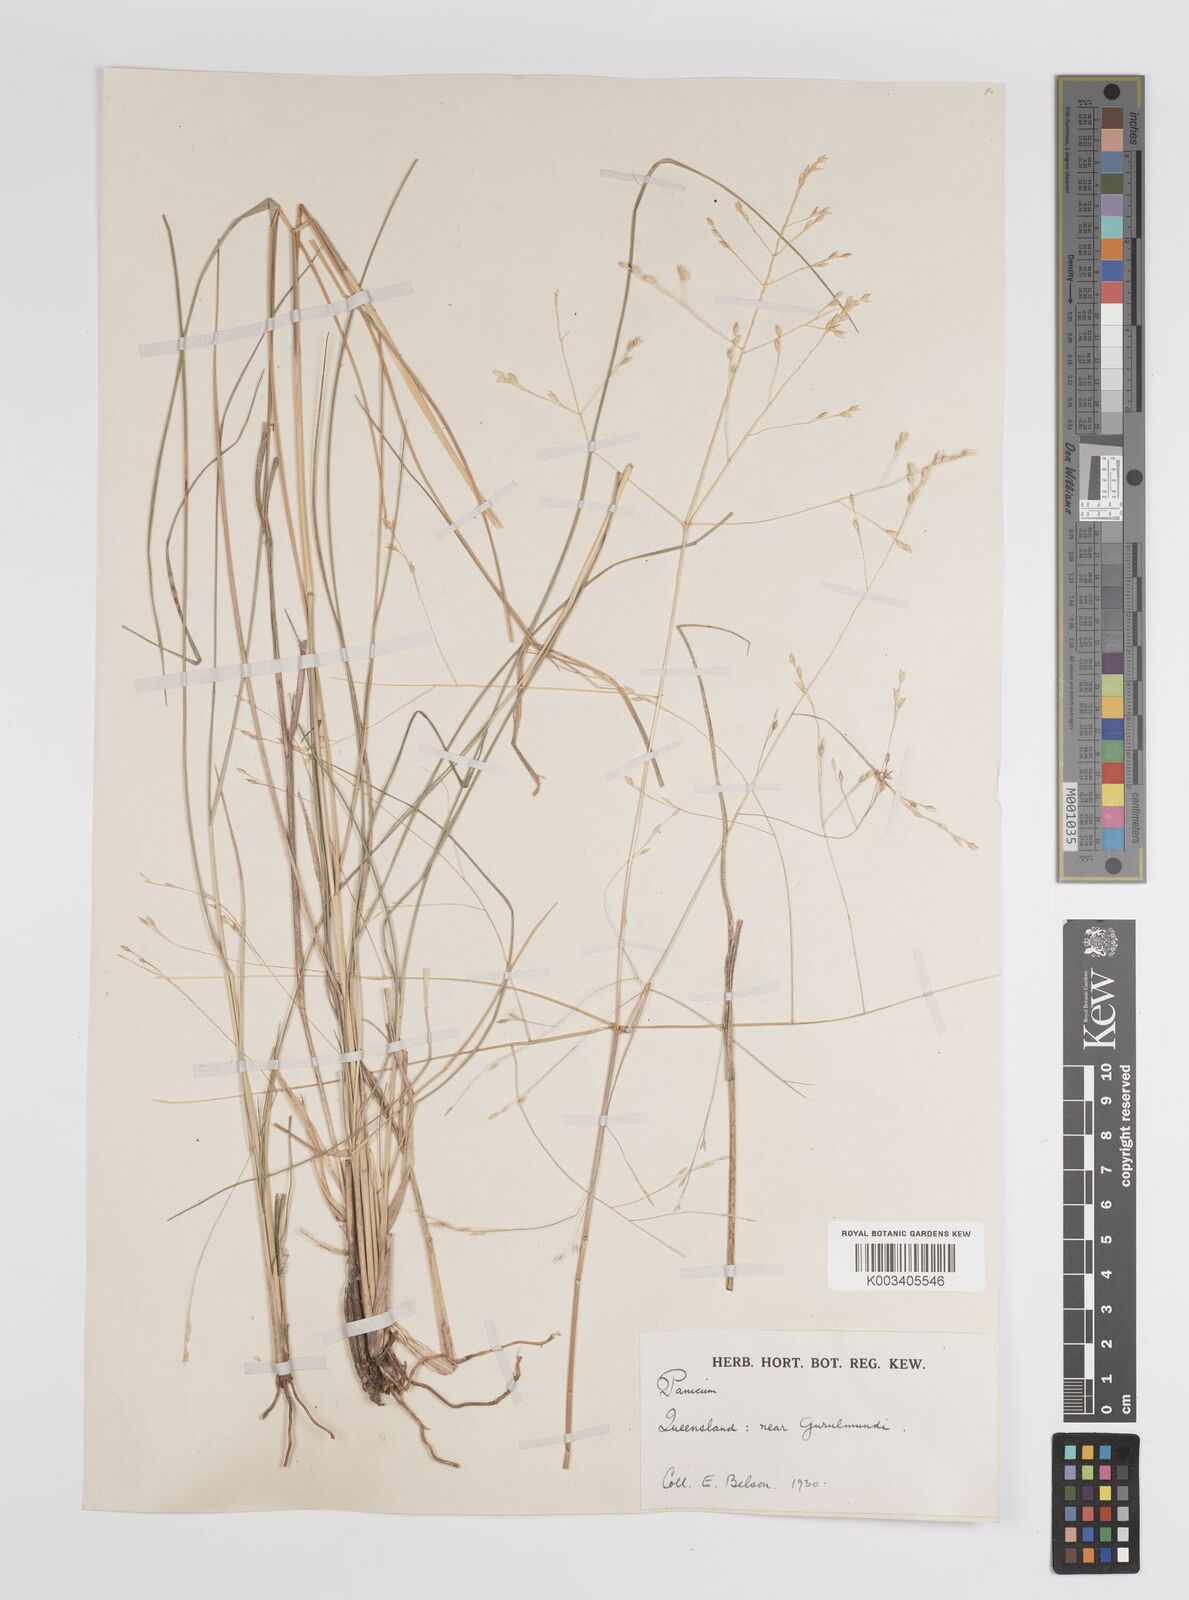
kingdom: Plantae
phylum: Tracheophyta
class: Liliopsida
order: Poales
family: Poaceae
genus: Panicum
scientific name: Panicum
